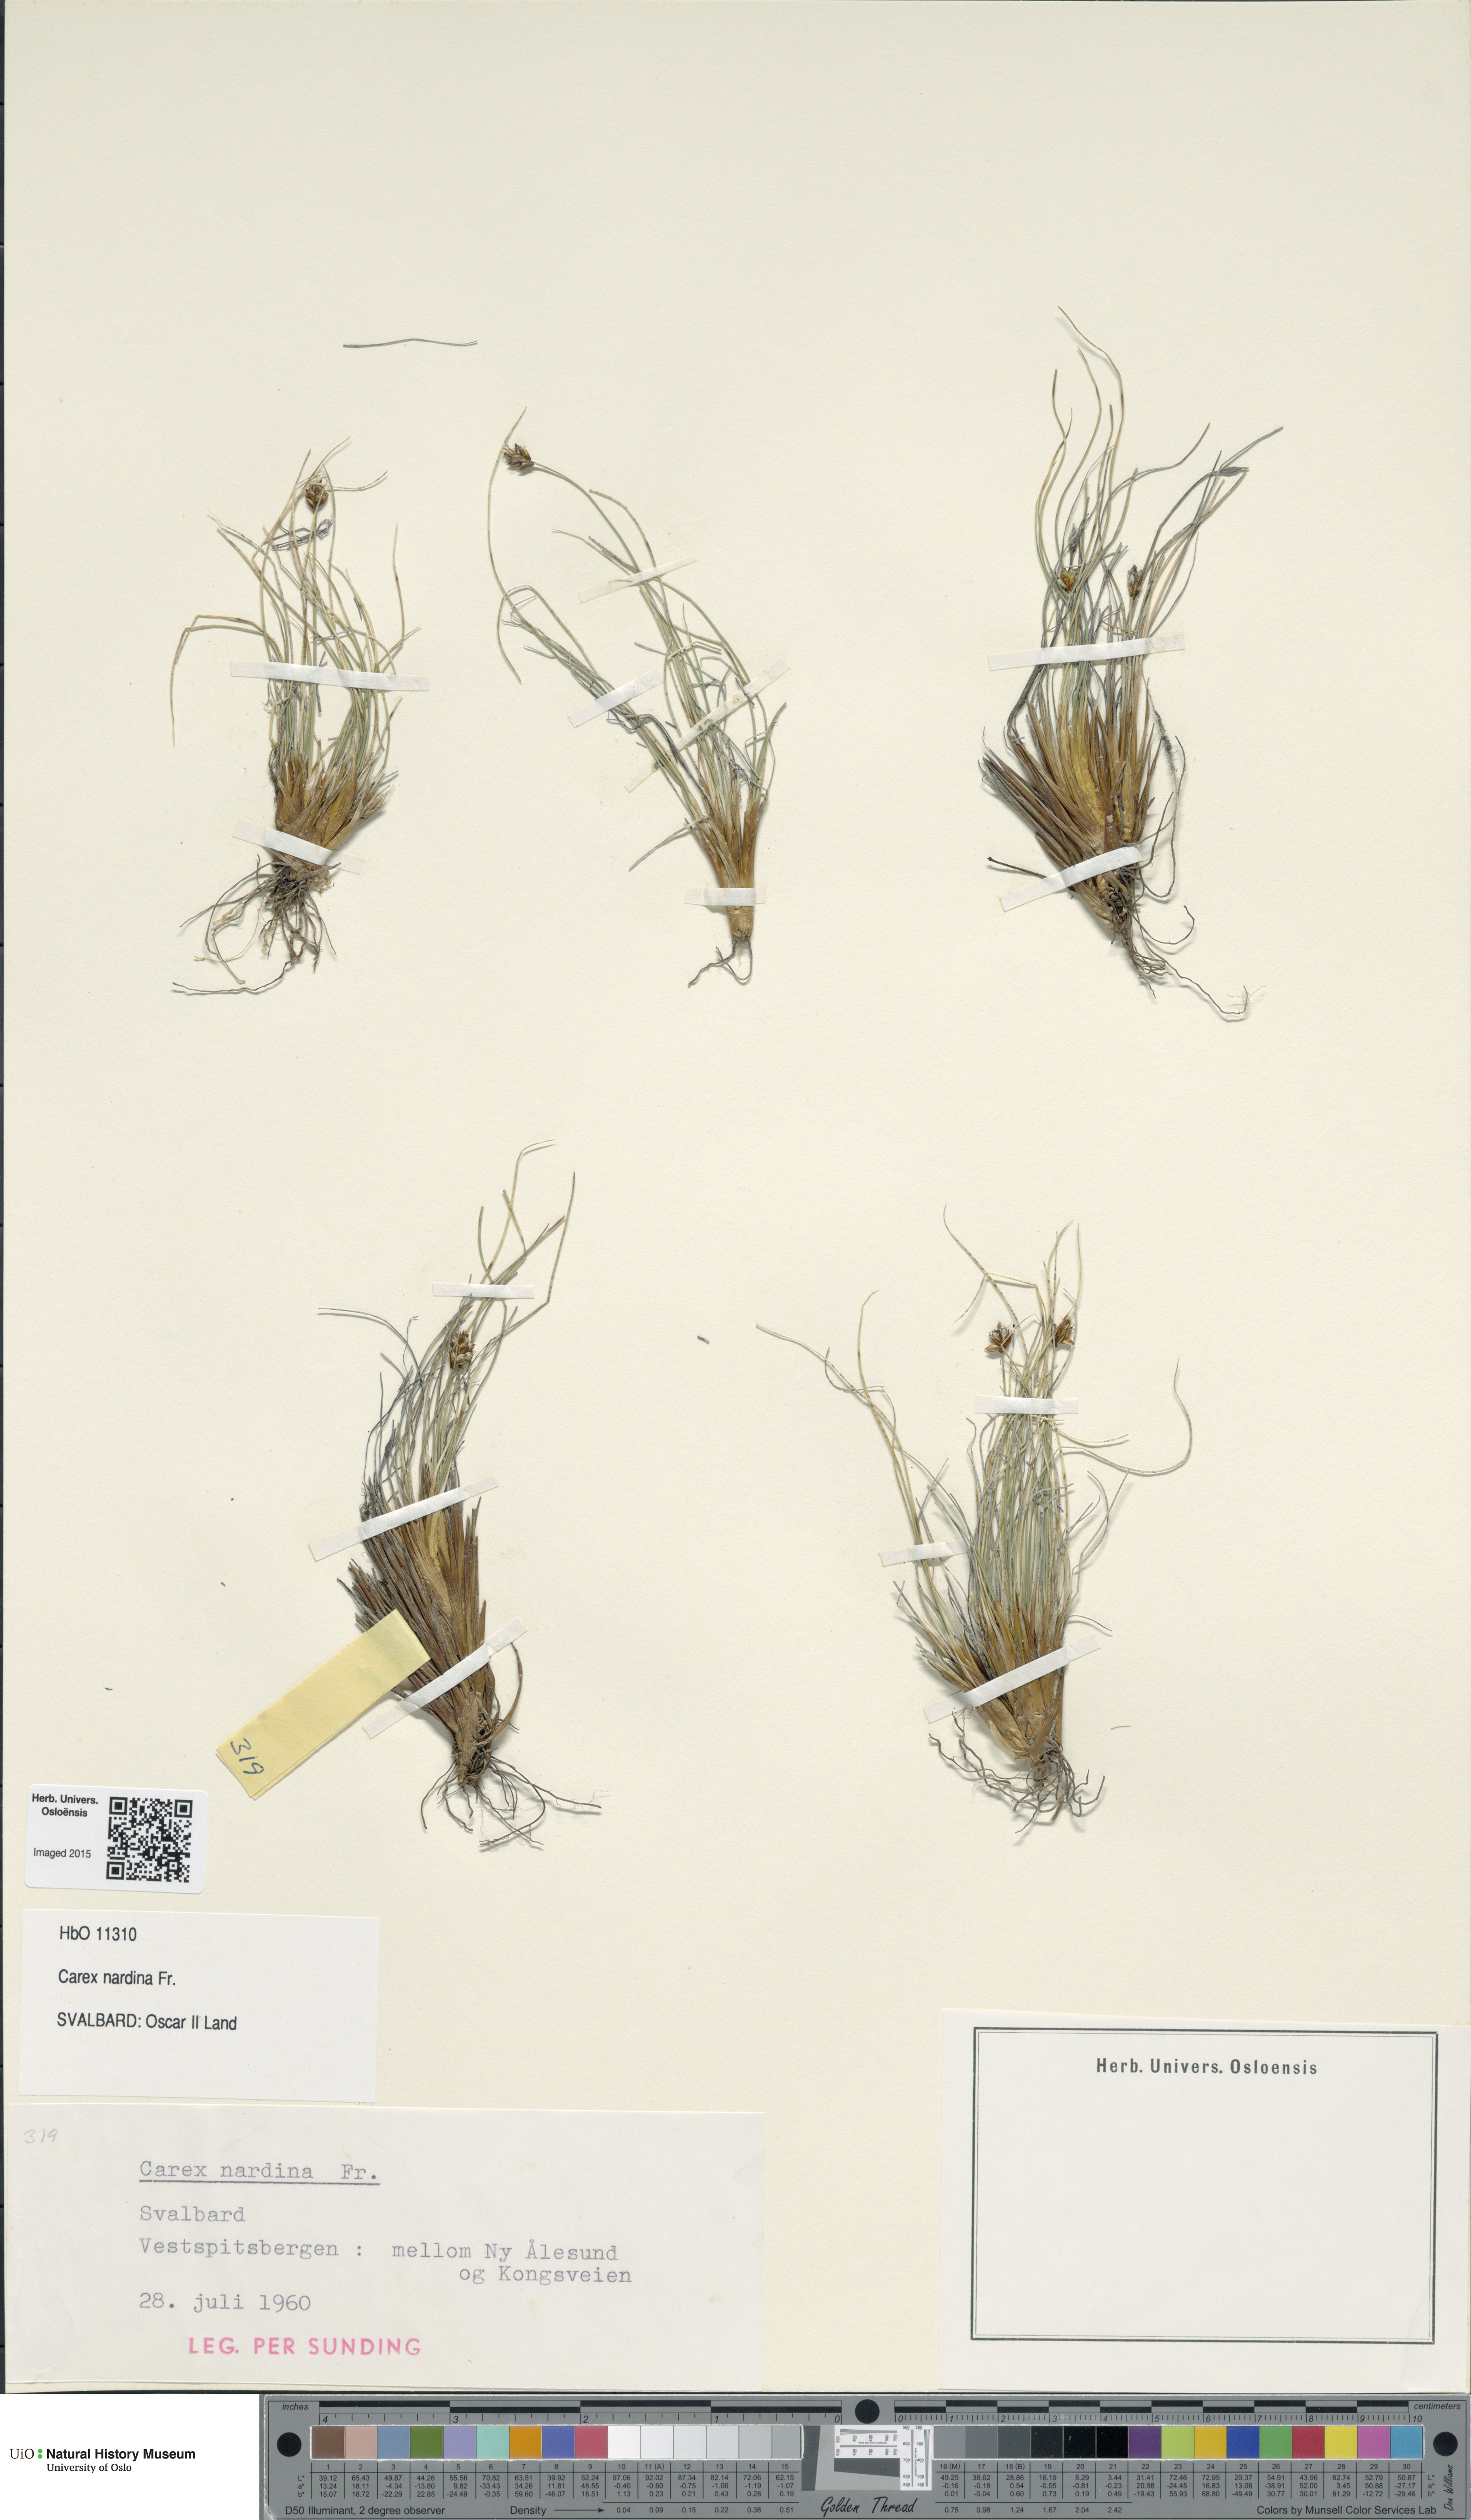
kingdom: Plantae
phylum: Tracheophyta
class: Liliopsida
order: Poales
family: Cyperaceae
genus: Carex
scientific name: Carex nardina
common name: Nard sedge
